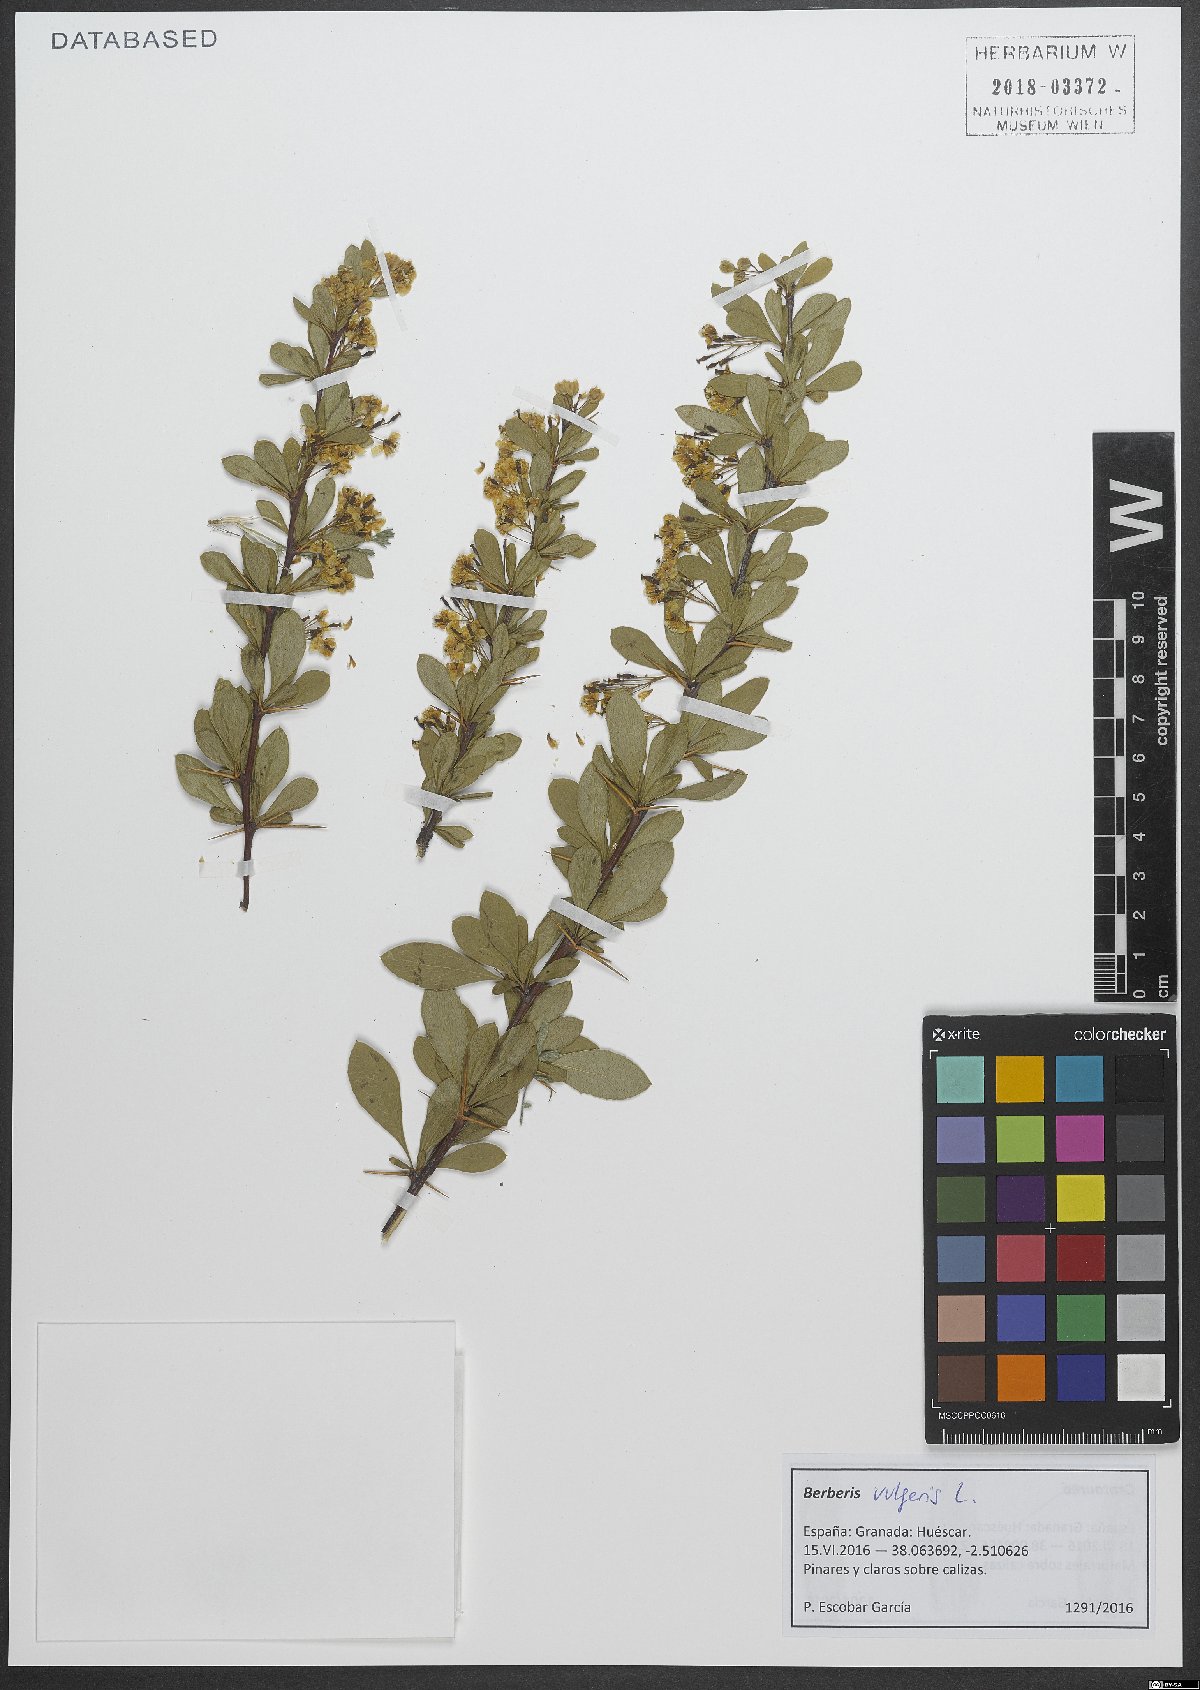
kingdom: Plantae
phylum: Tracheophyta
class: Magnoliopsida
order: Ranunculales
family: Berberidaceae
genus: Berberis
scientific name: Berberis vulgaris
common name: Barberry
